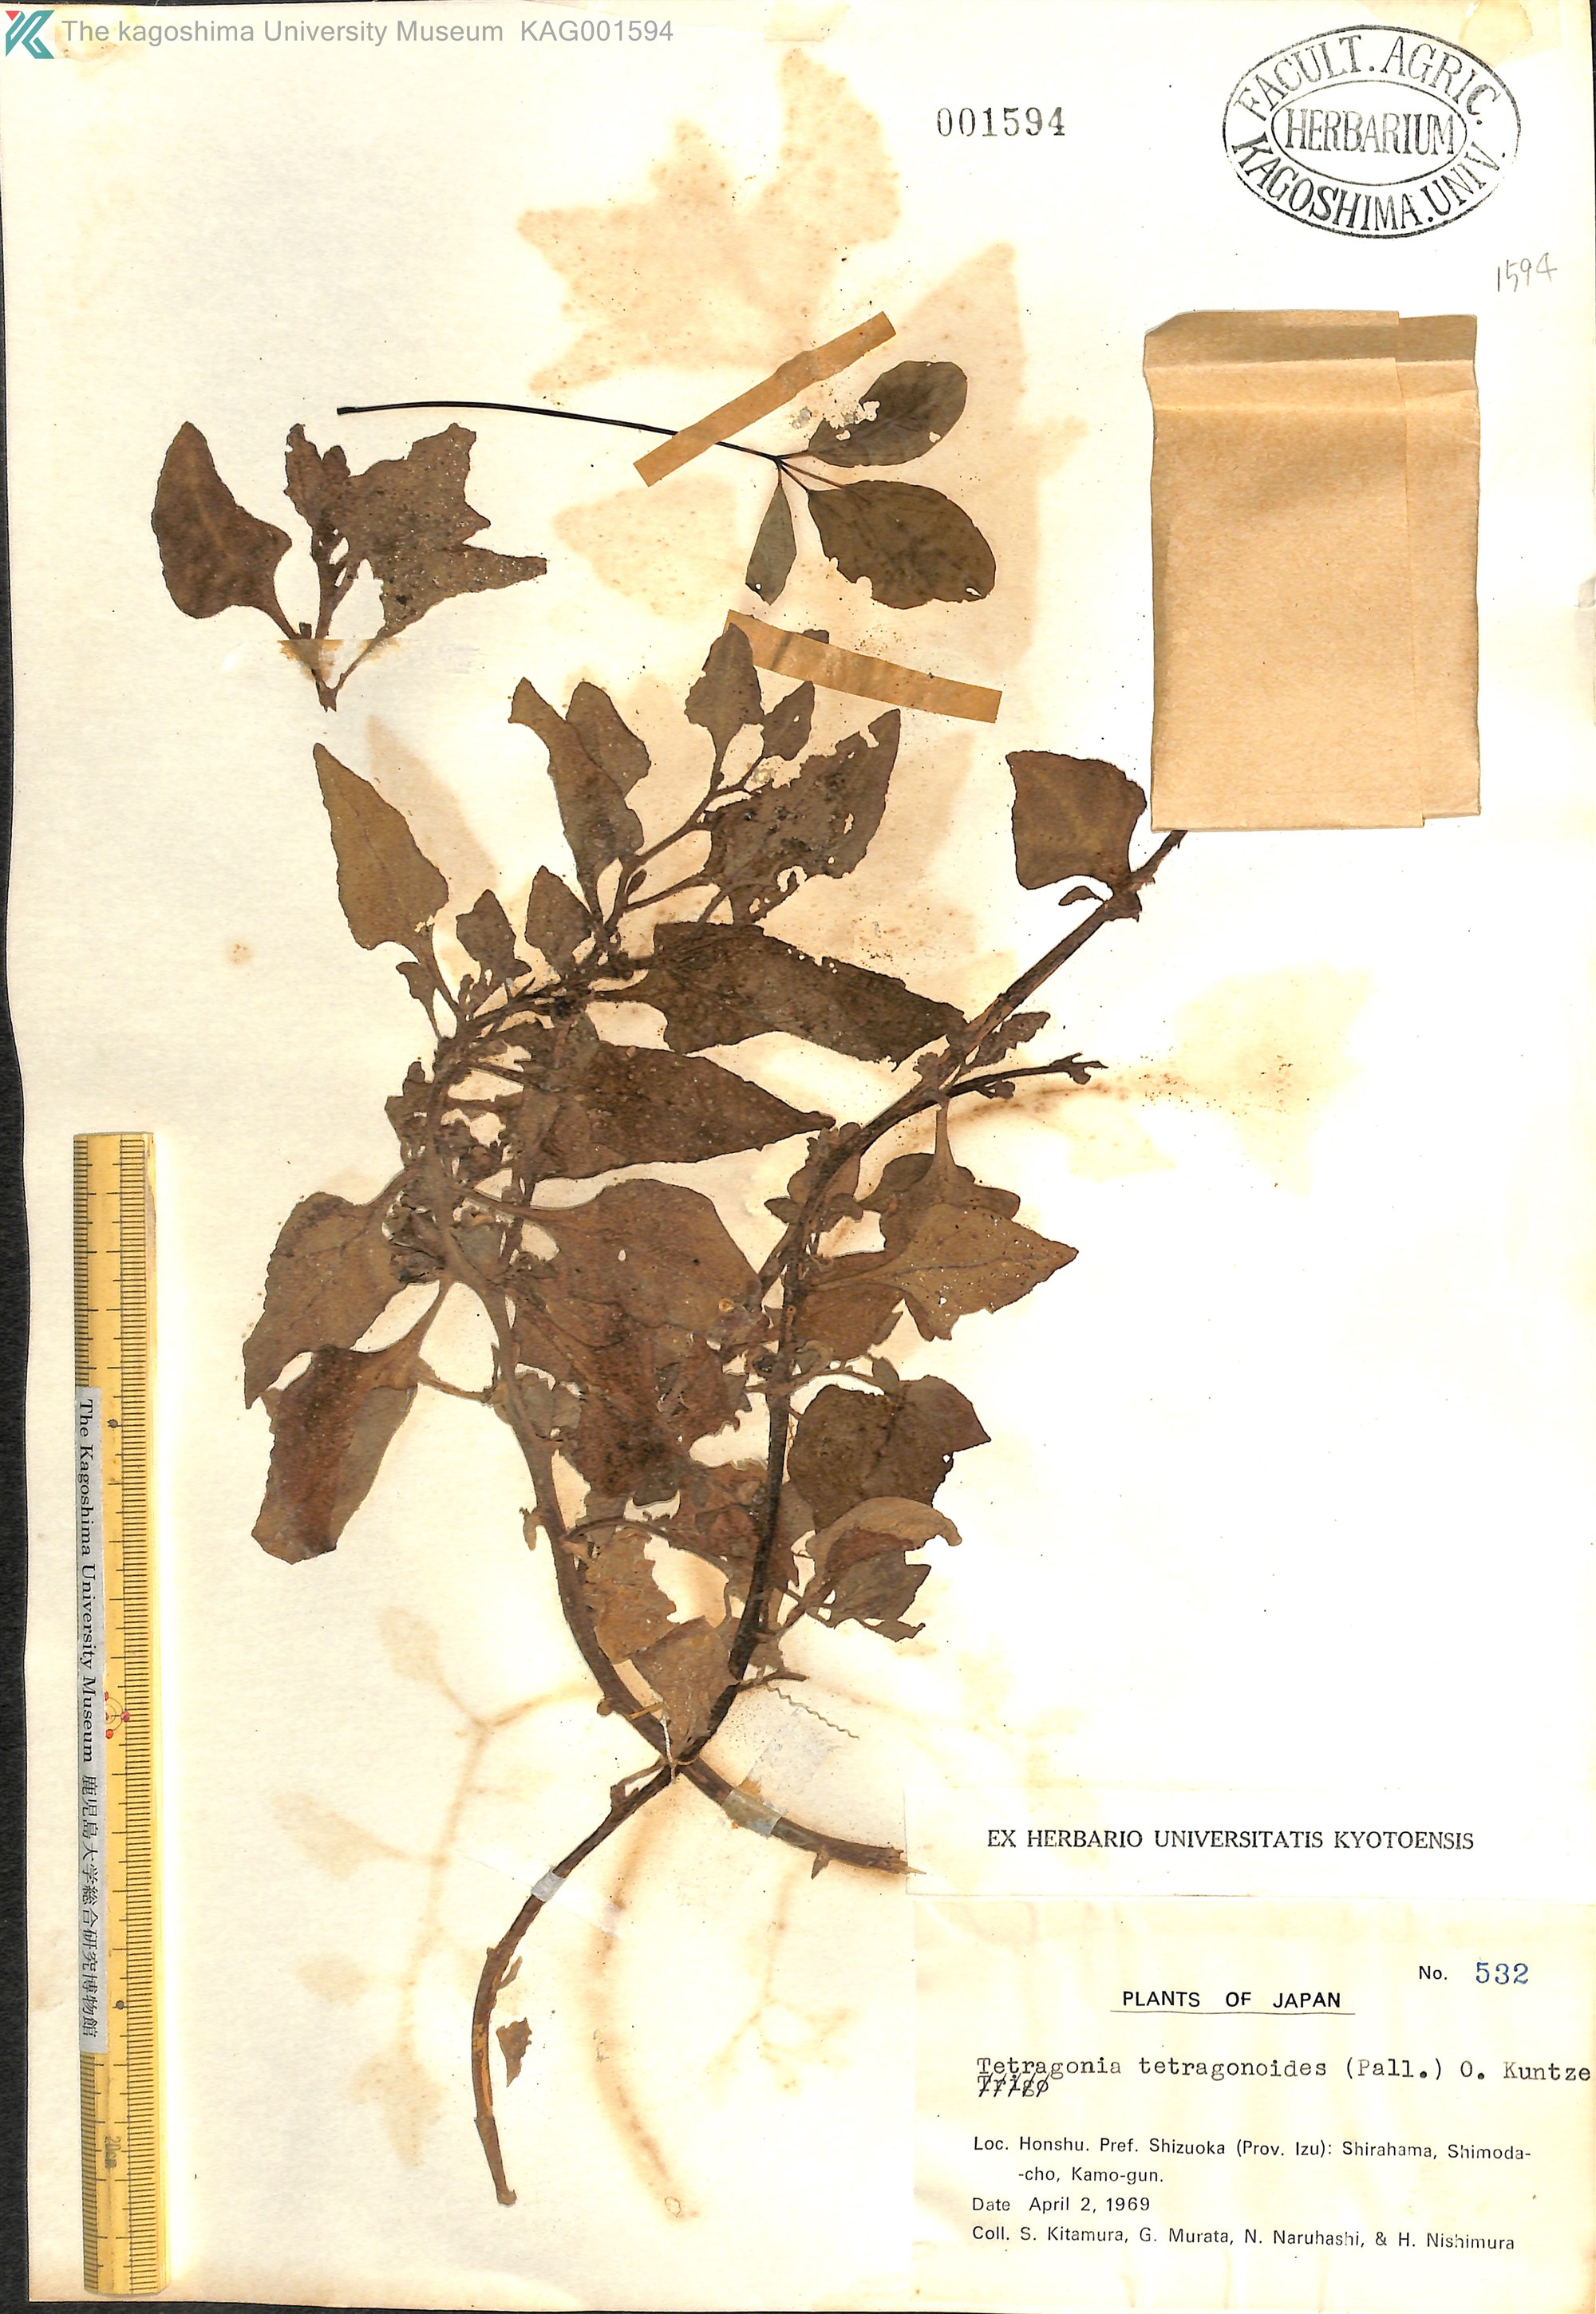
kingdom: Plantae
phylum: Tracheophyta
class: Magnoliopsida
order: Caryophyllales
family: Aizoaceae
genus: Tetragonia
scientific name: Tetragonia tetragonoides
